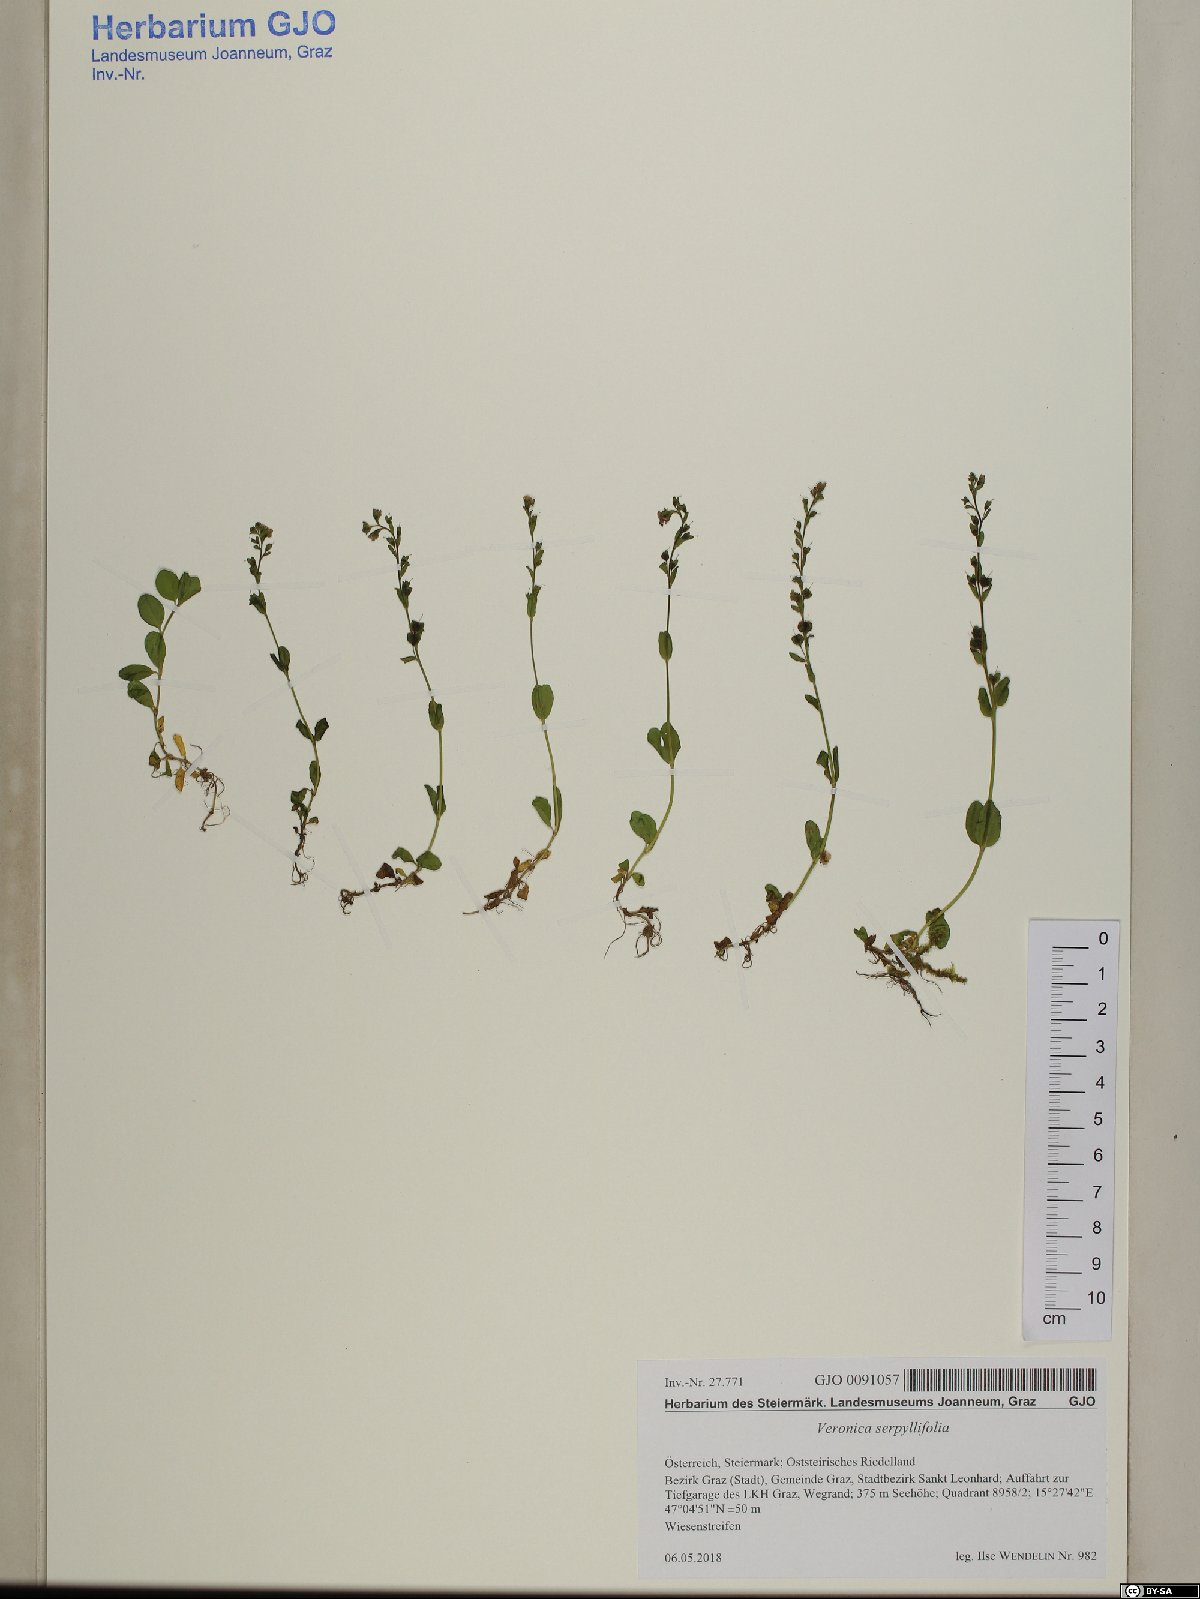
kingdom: Plantae
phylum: Tracheophyta
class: Magnoliopsida
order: Lamiales
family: Plantaginaceae
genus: Veronica
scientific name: Veronica serpyllifolia
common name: Thyme-leaved speedwell
